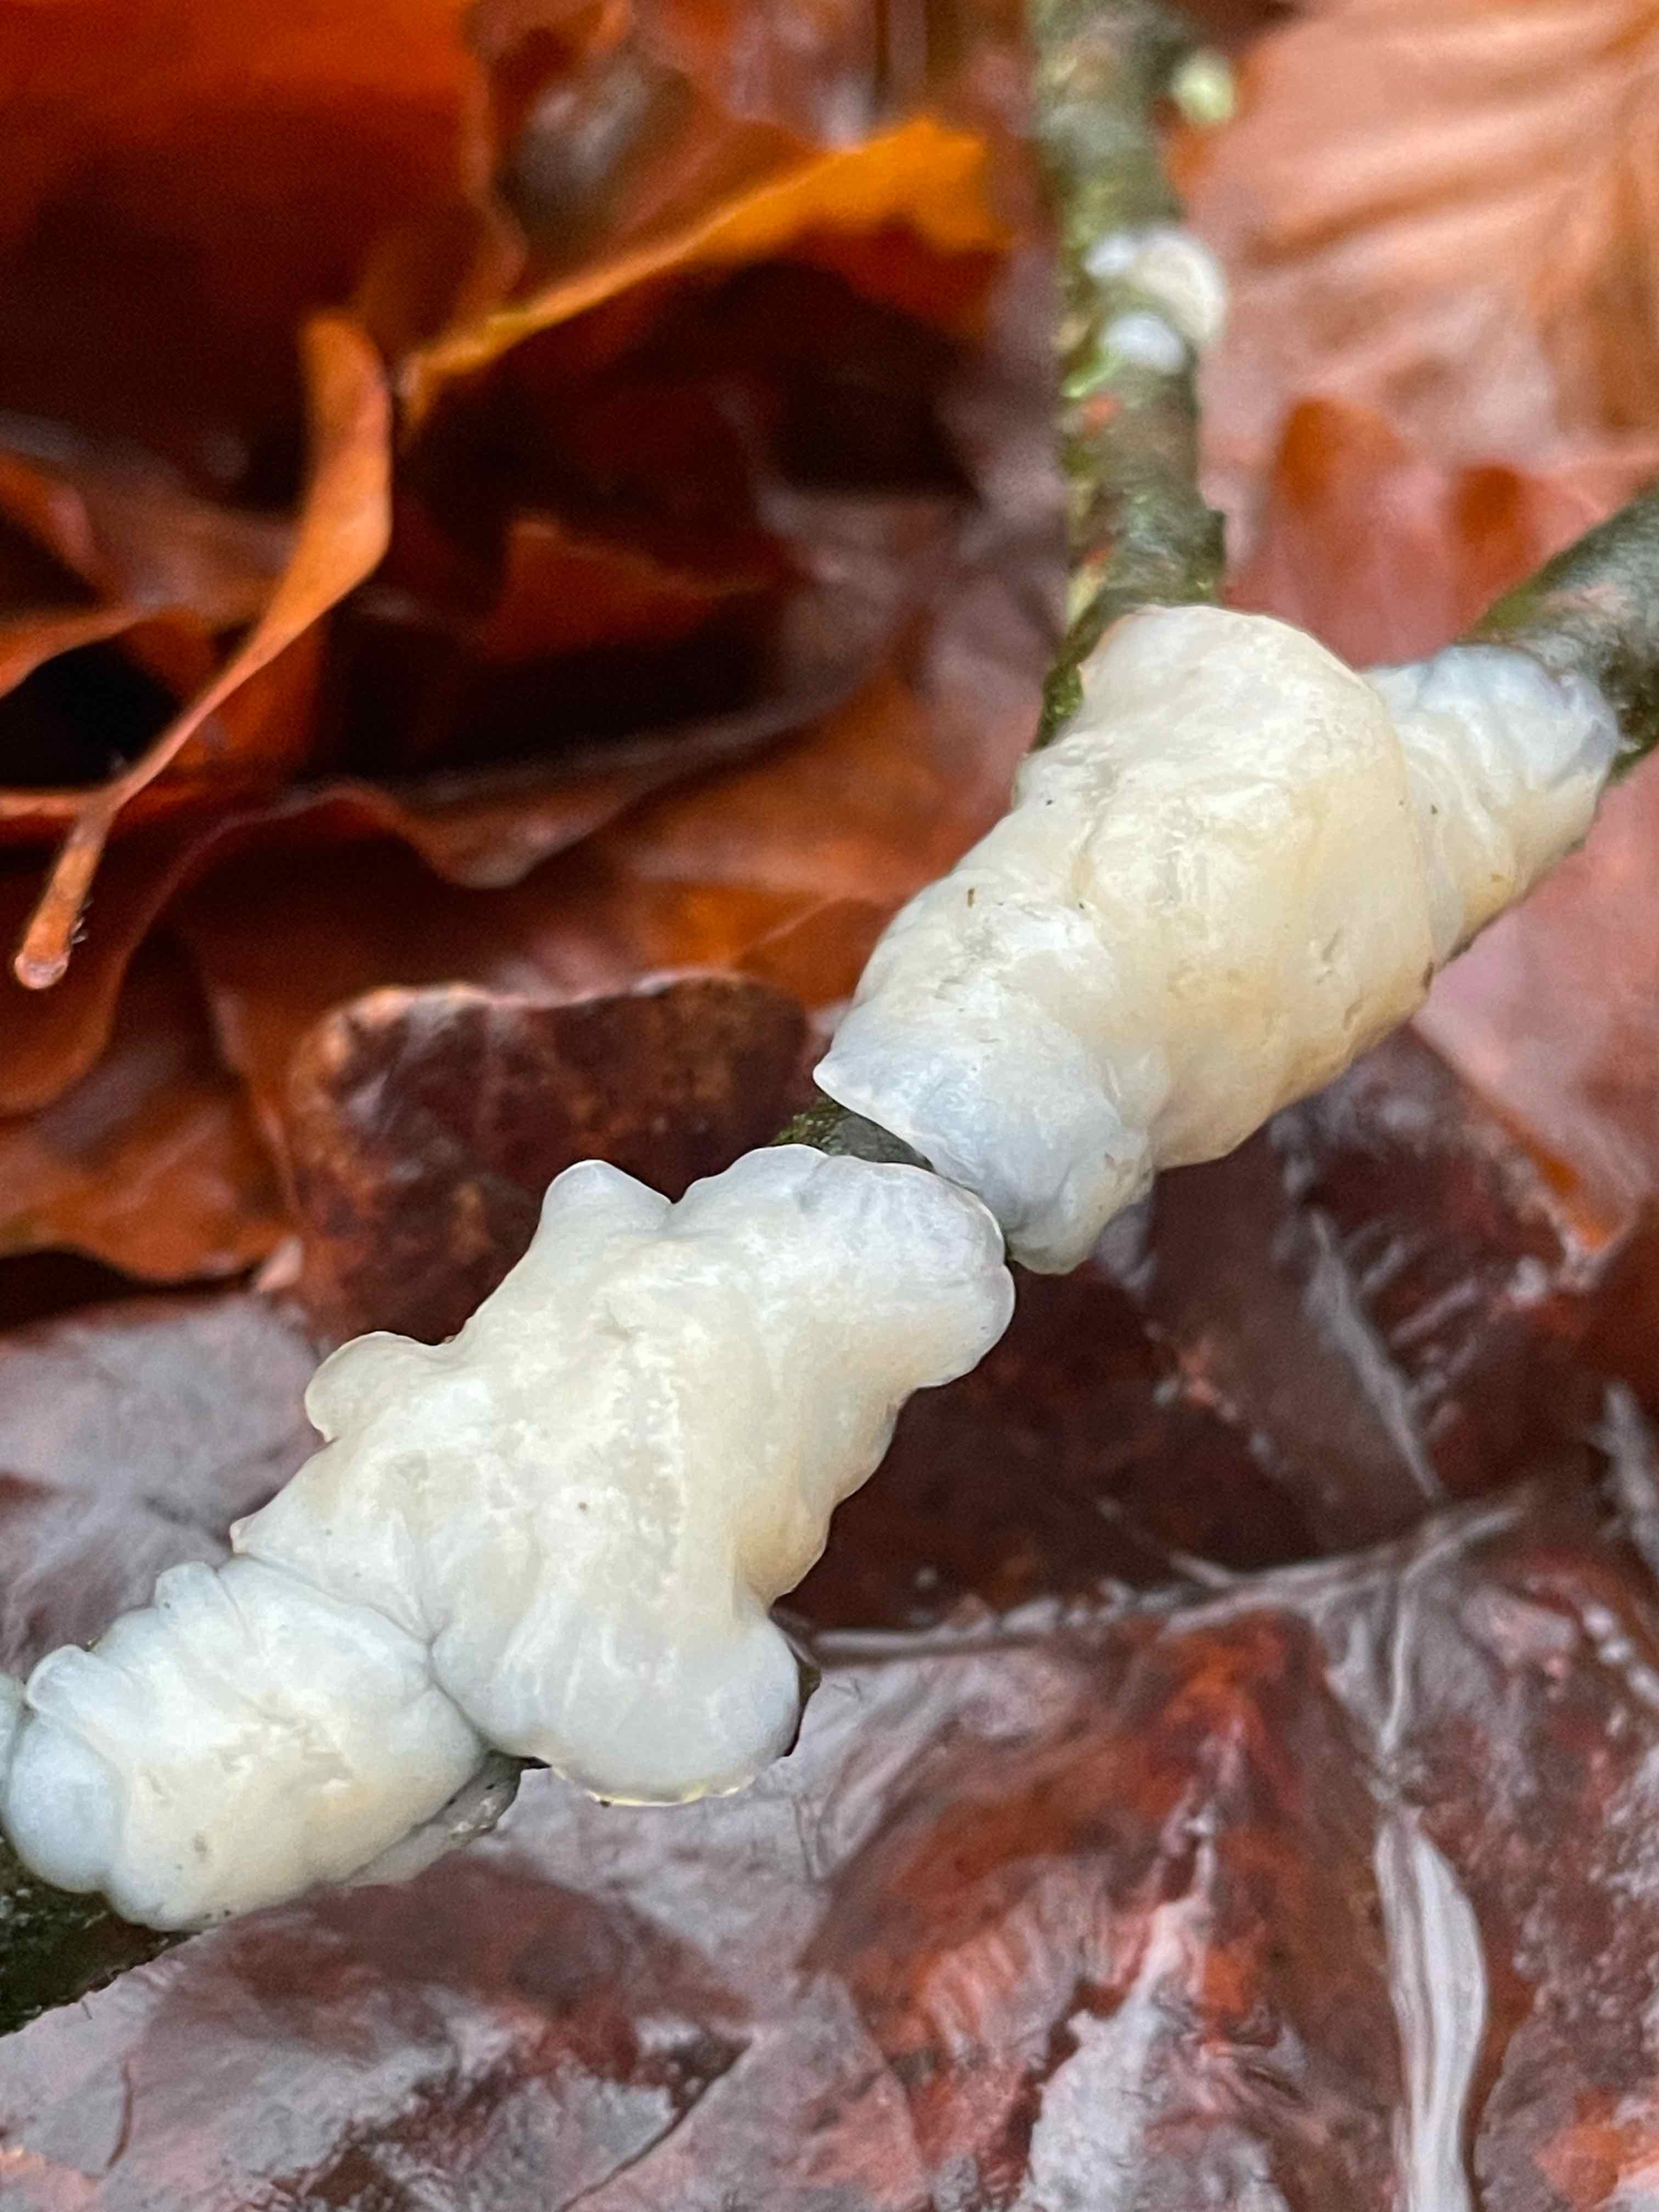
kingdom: Fungi
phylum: Basidiomycota
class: Agaricomycetes
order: Auriculariales
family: Auriculariaceae
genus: Exidia
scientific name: Exidia thuretiana
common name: hvidlig bævretop
